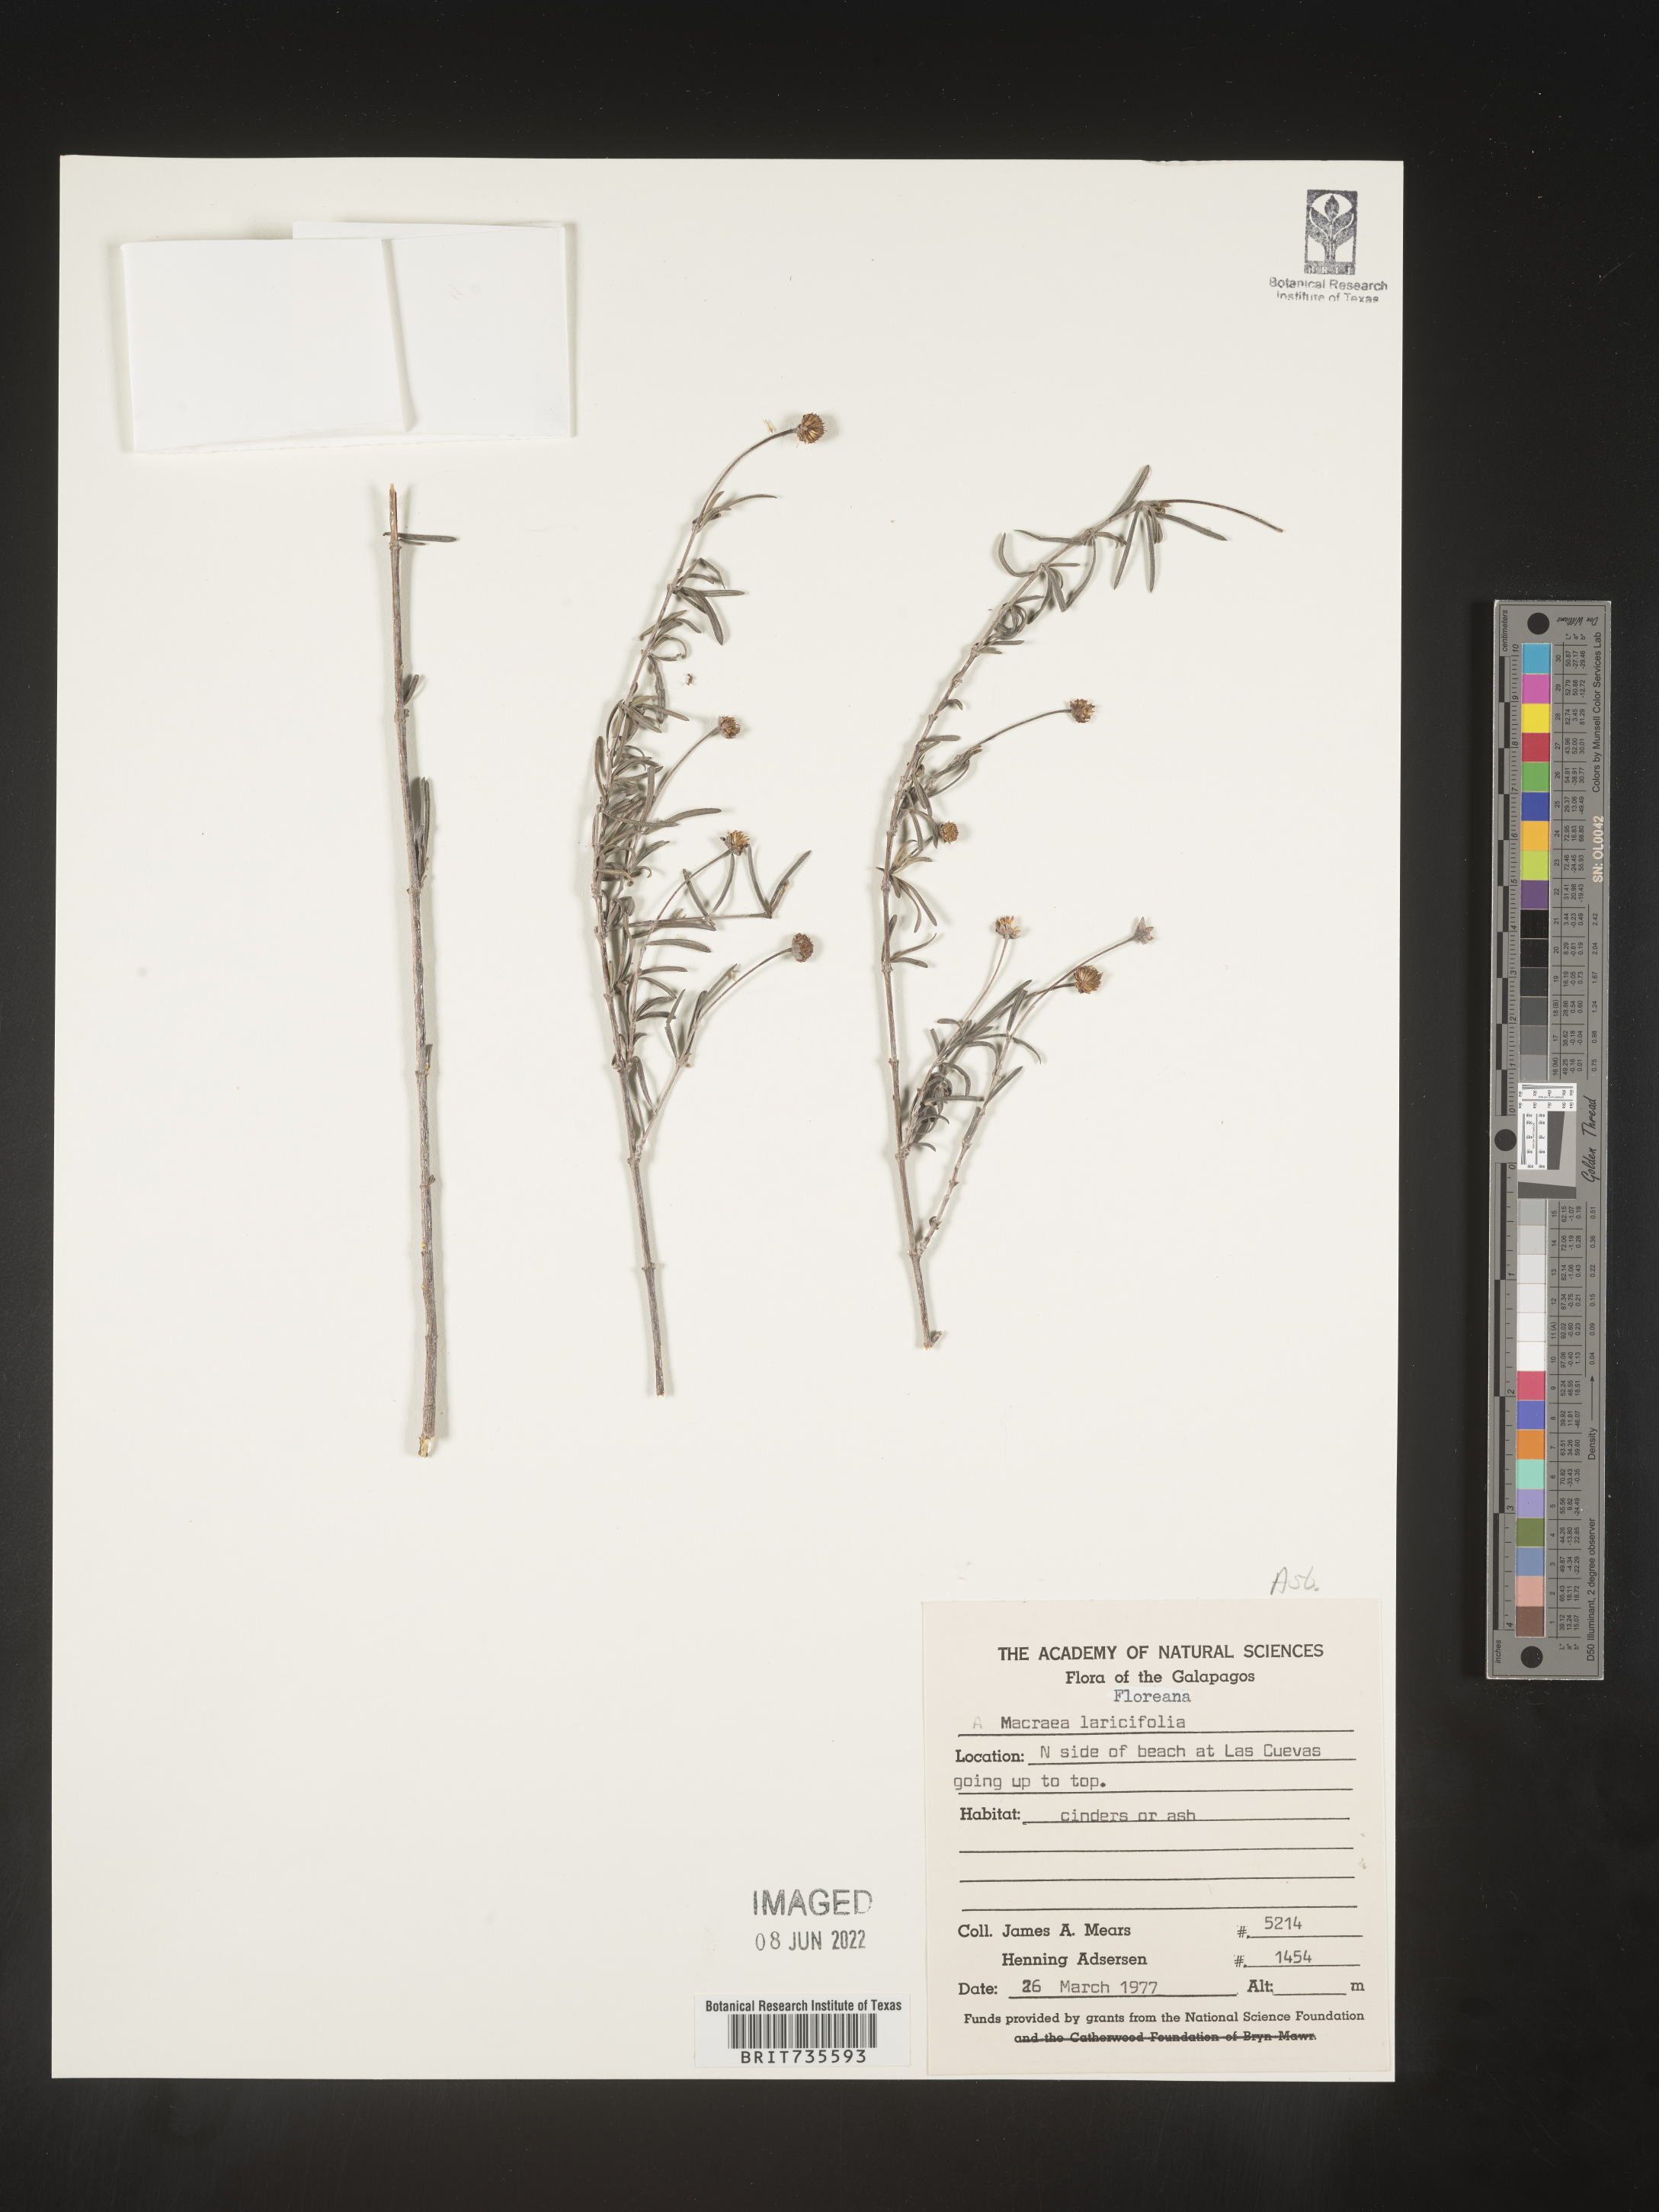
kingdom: Plantae
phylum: Tracheophyta
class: Magnoliopsida
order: Asterales
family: Asteraceae
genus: Trigonopterum
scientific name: Trigonopterum laricifolium
